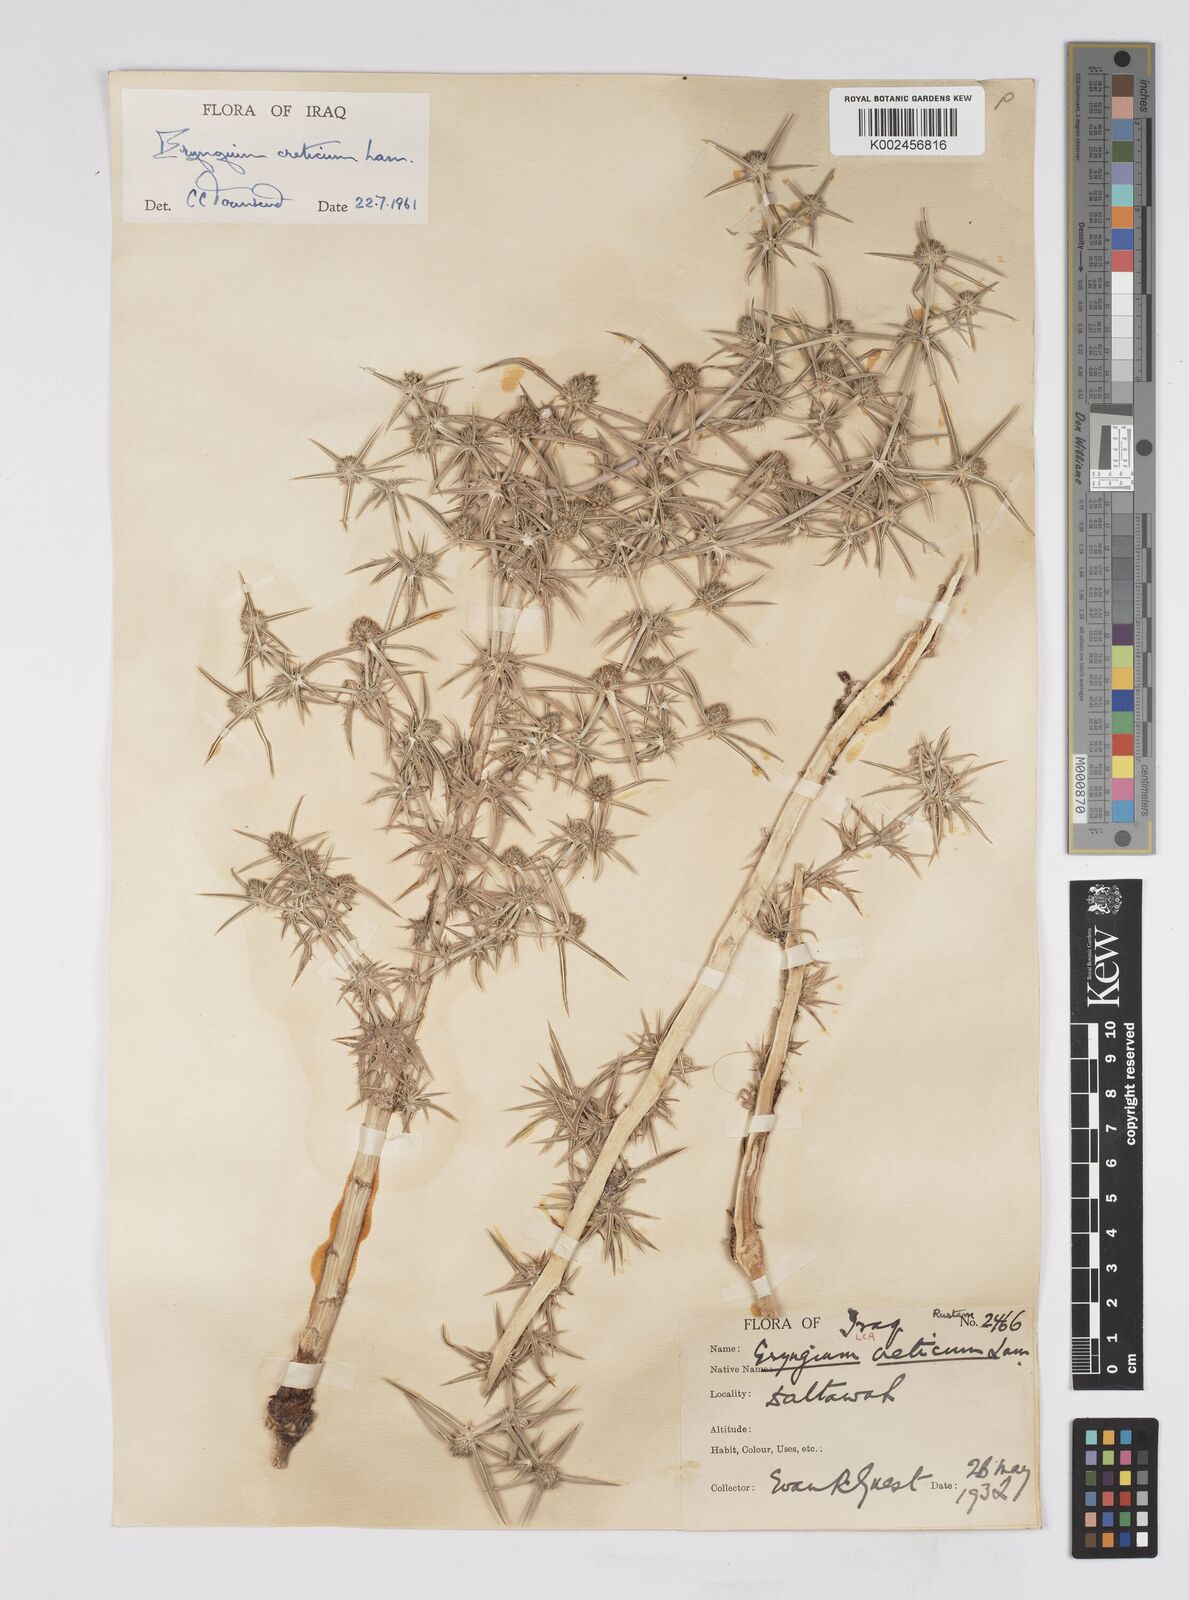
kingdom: Plantae
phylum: Tracheophyta
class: Magnoliopsida
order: Apiales
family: Apiaceae
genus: Eryngium
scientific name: Eryngium creticum
